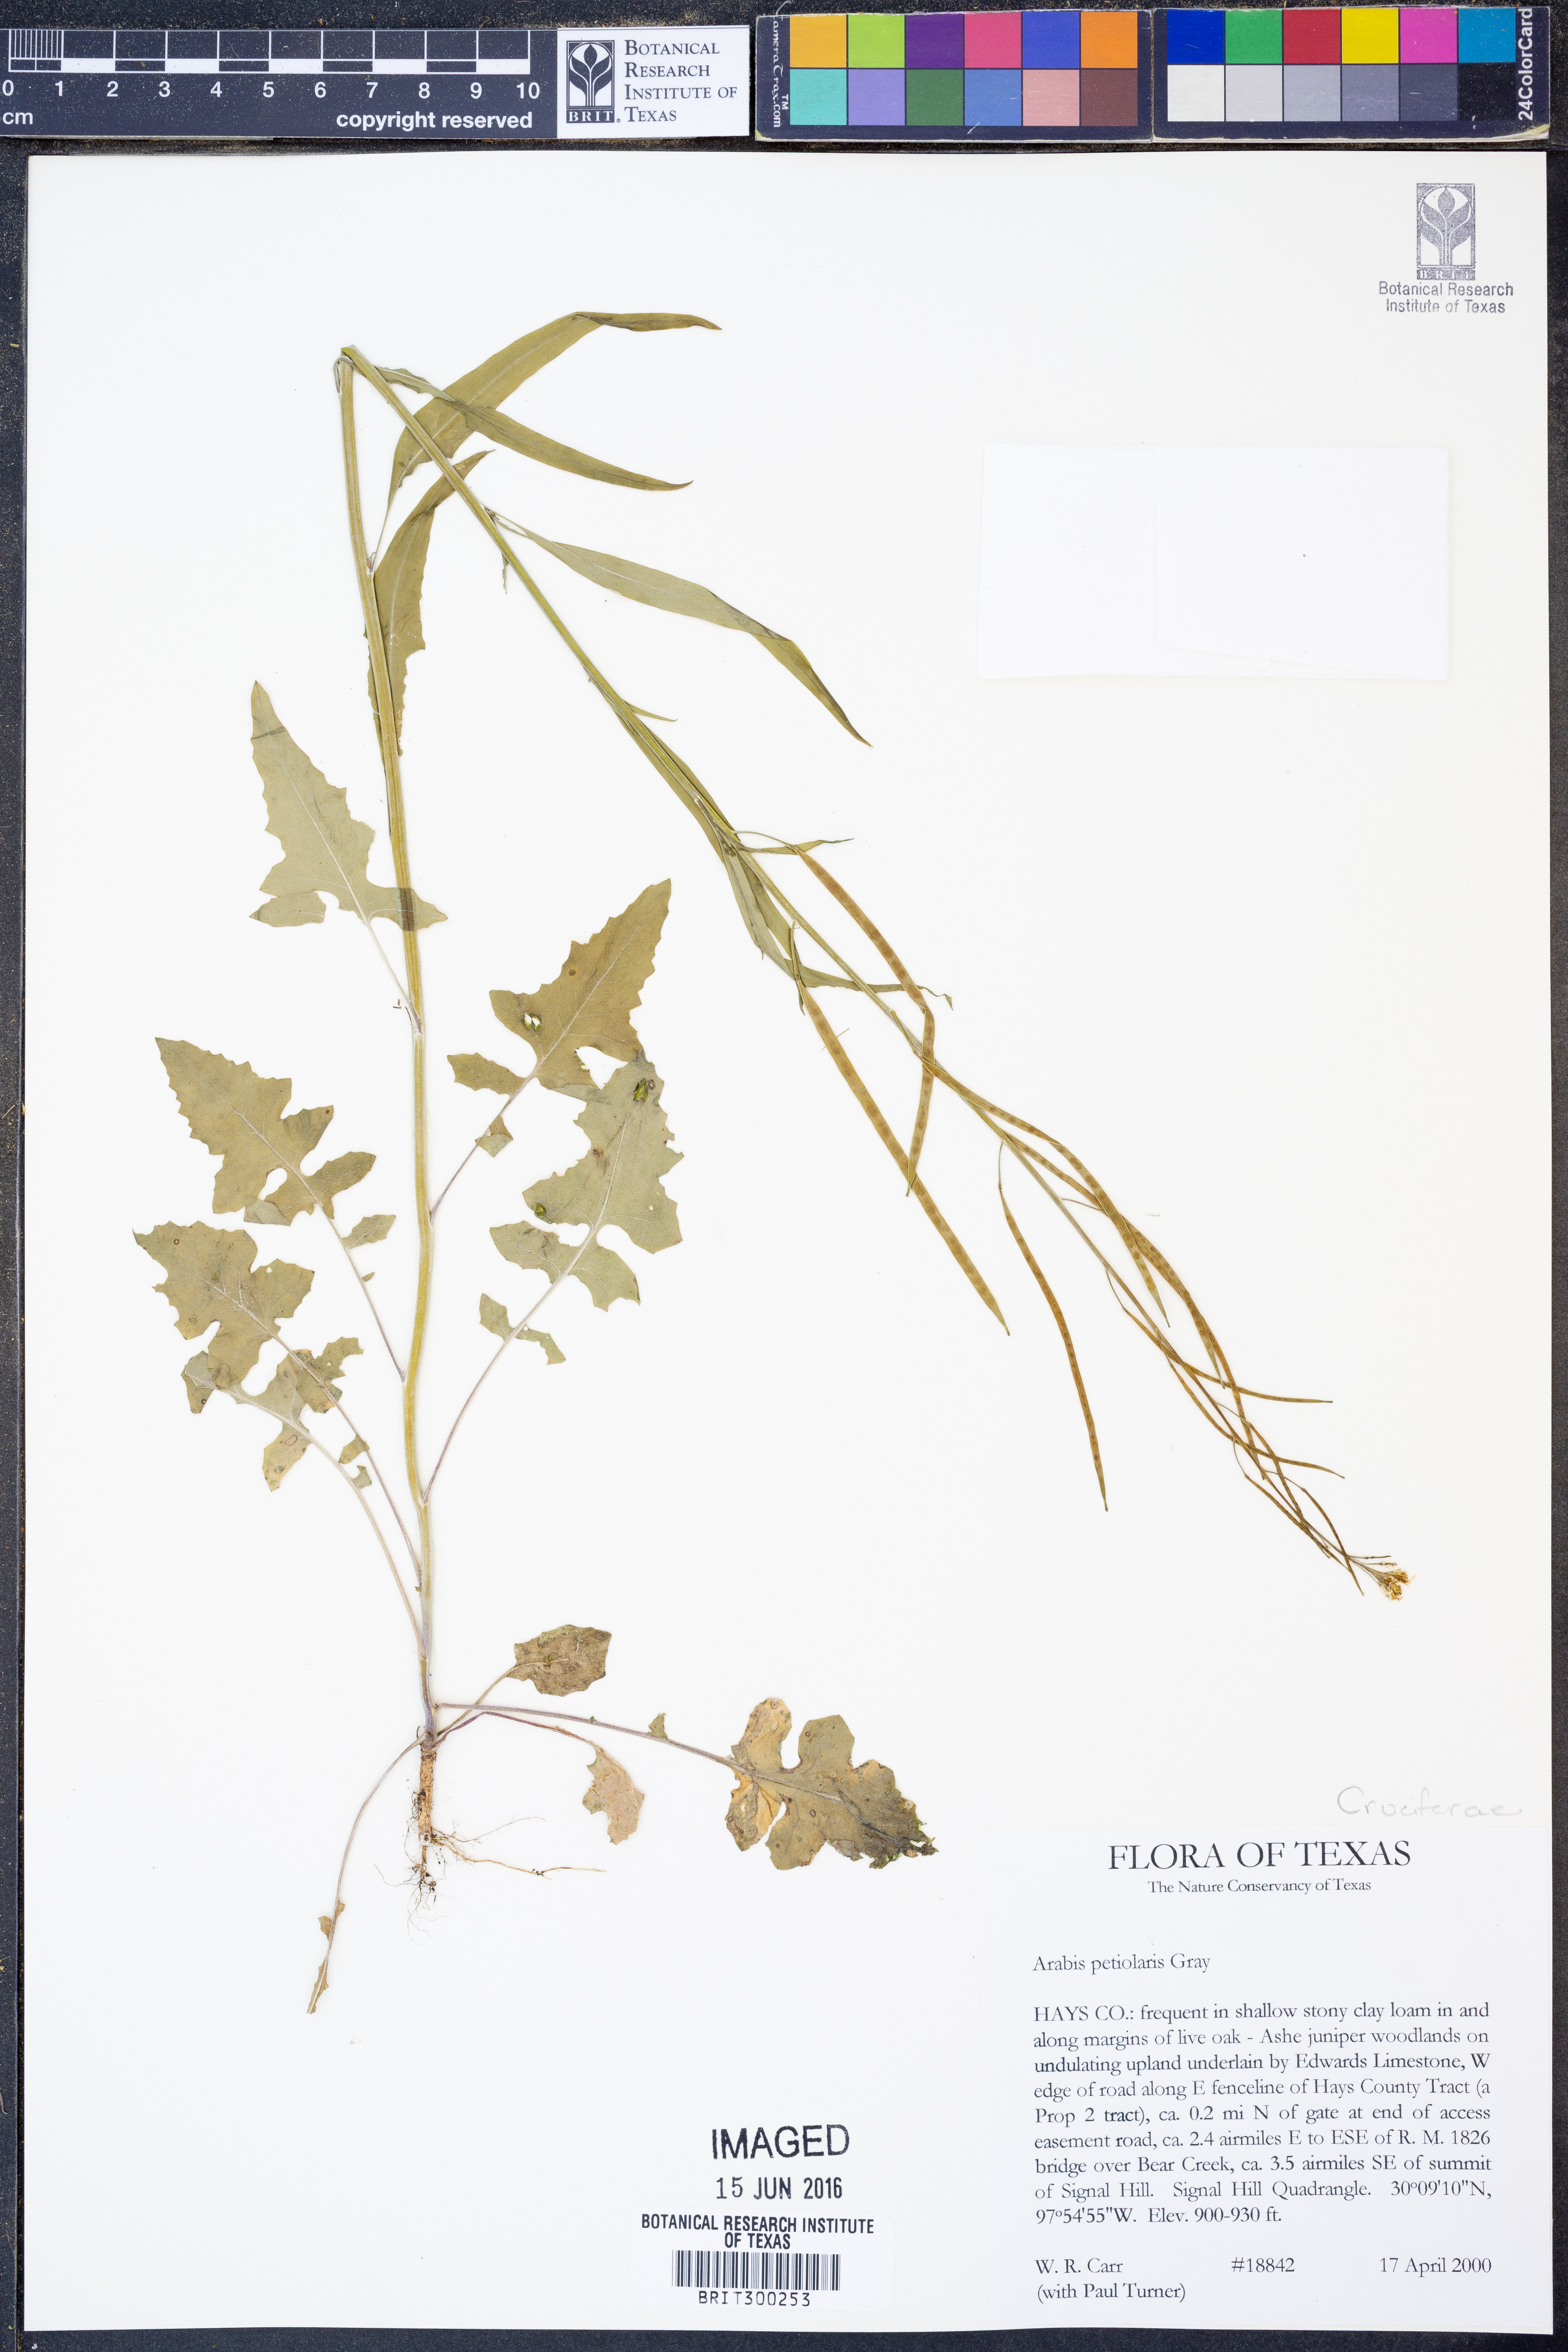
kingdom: Plantae
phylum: Tracheophyta
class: Magnoliopsida
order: Brassicales
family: Brassicaceae
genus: Streptanthus
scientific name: Streptanthus petiolaris
